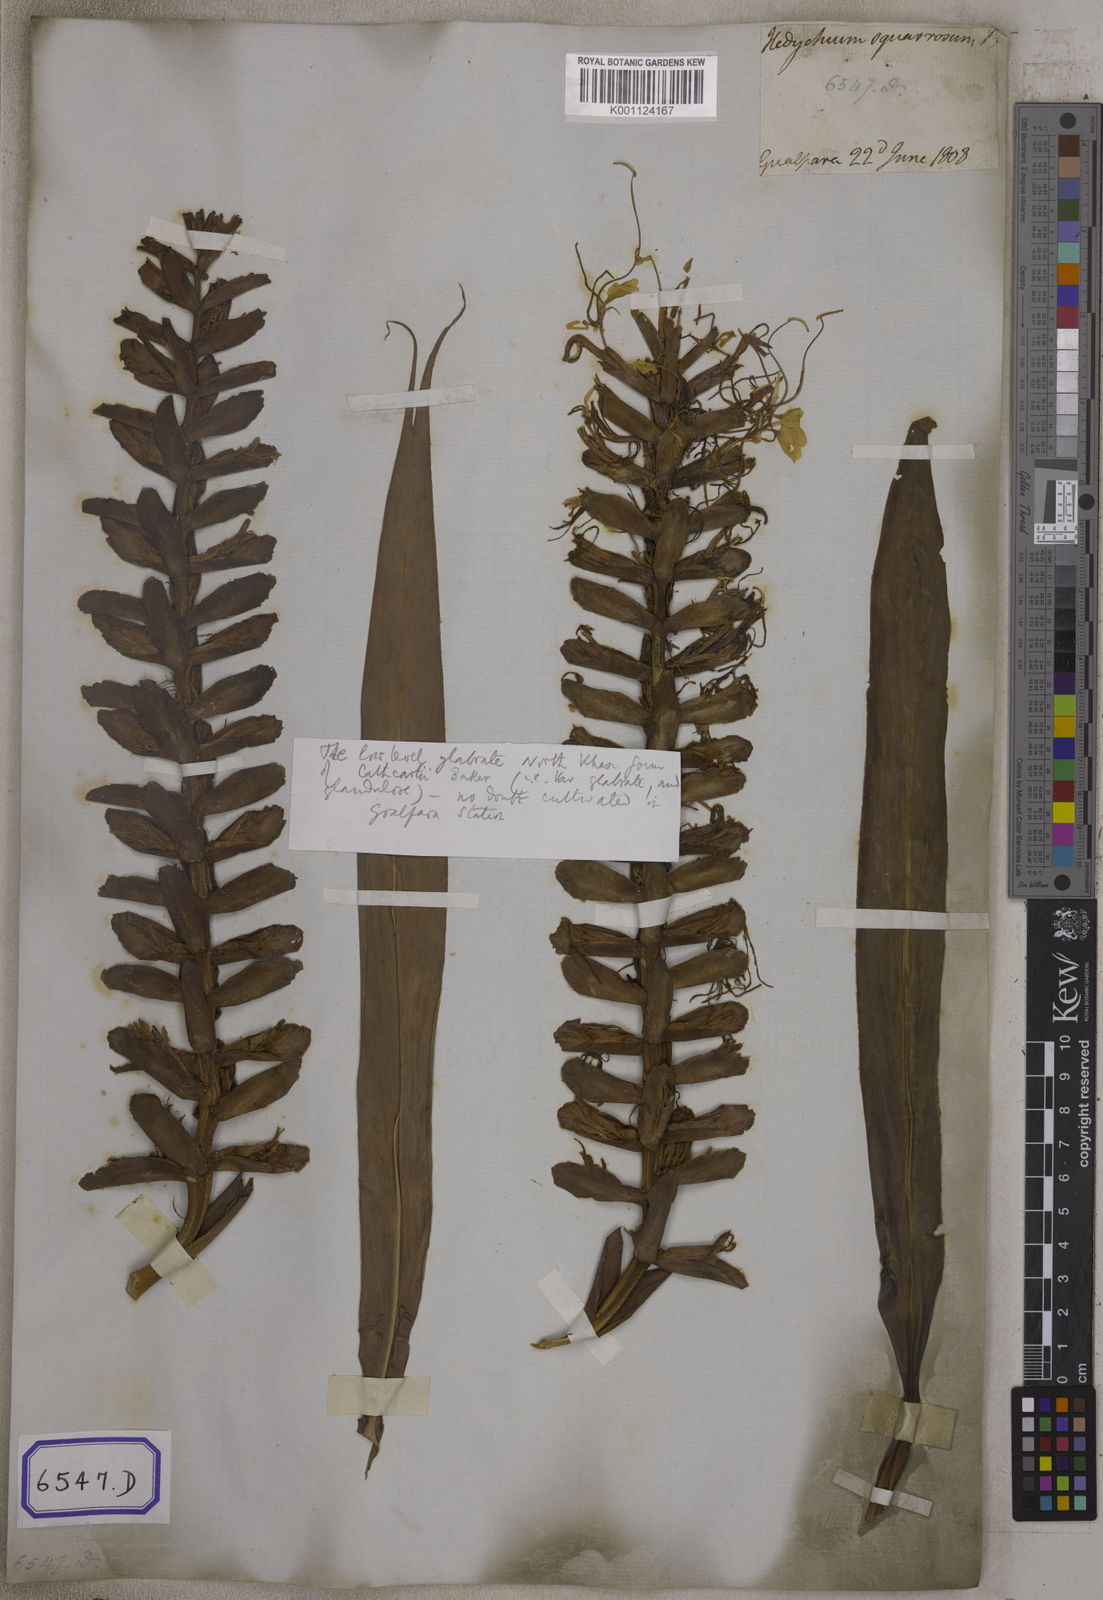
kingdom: Plantae
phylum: Tracheophyta
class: Liliopsida
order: Zingiberales
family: Zingiberaceae
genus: Hedychium
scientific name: Hedychium coccineum
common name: Red ginger-lily
